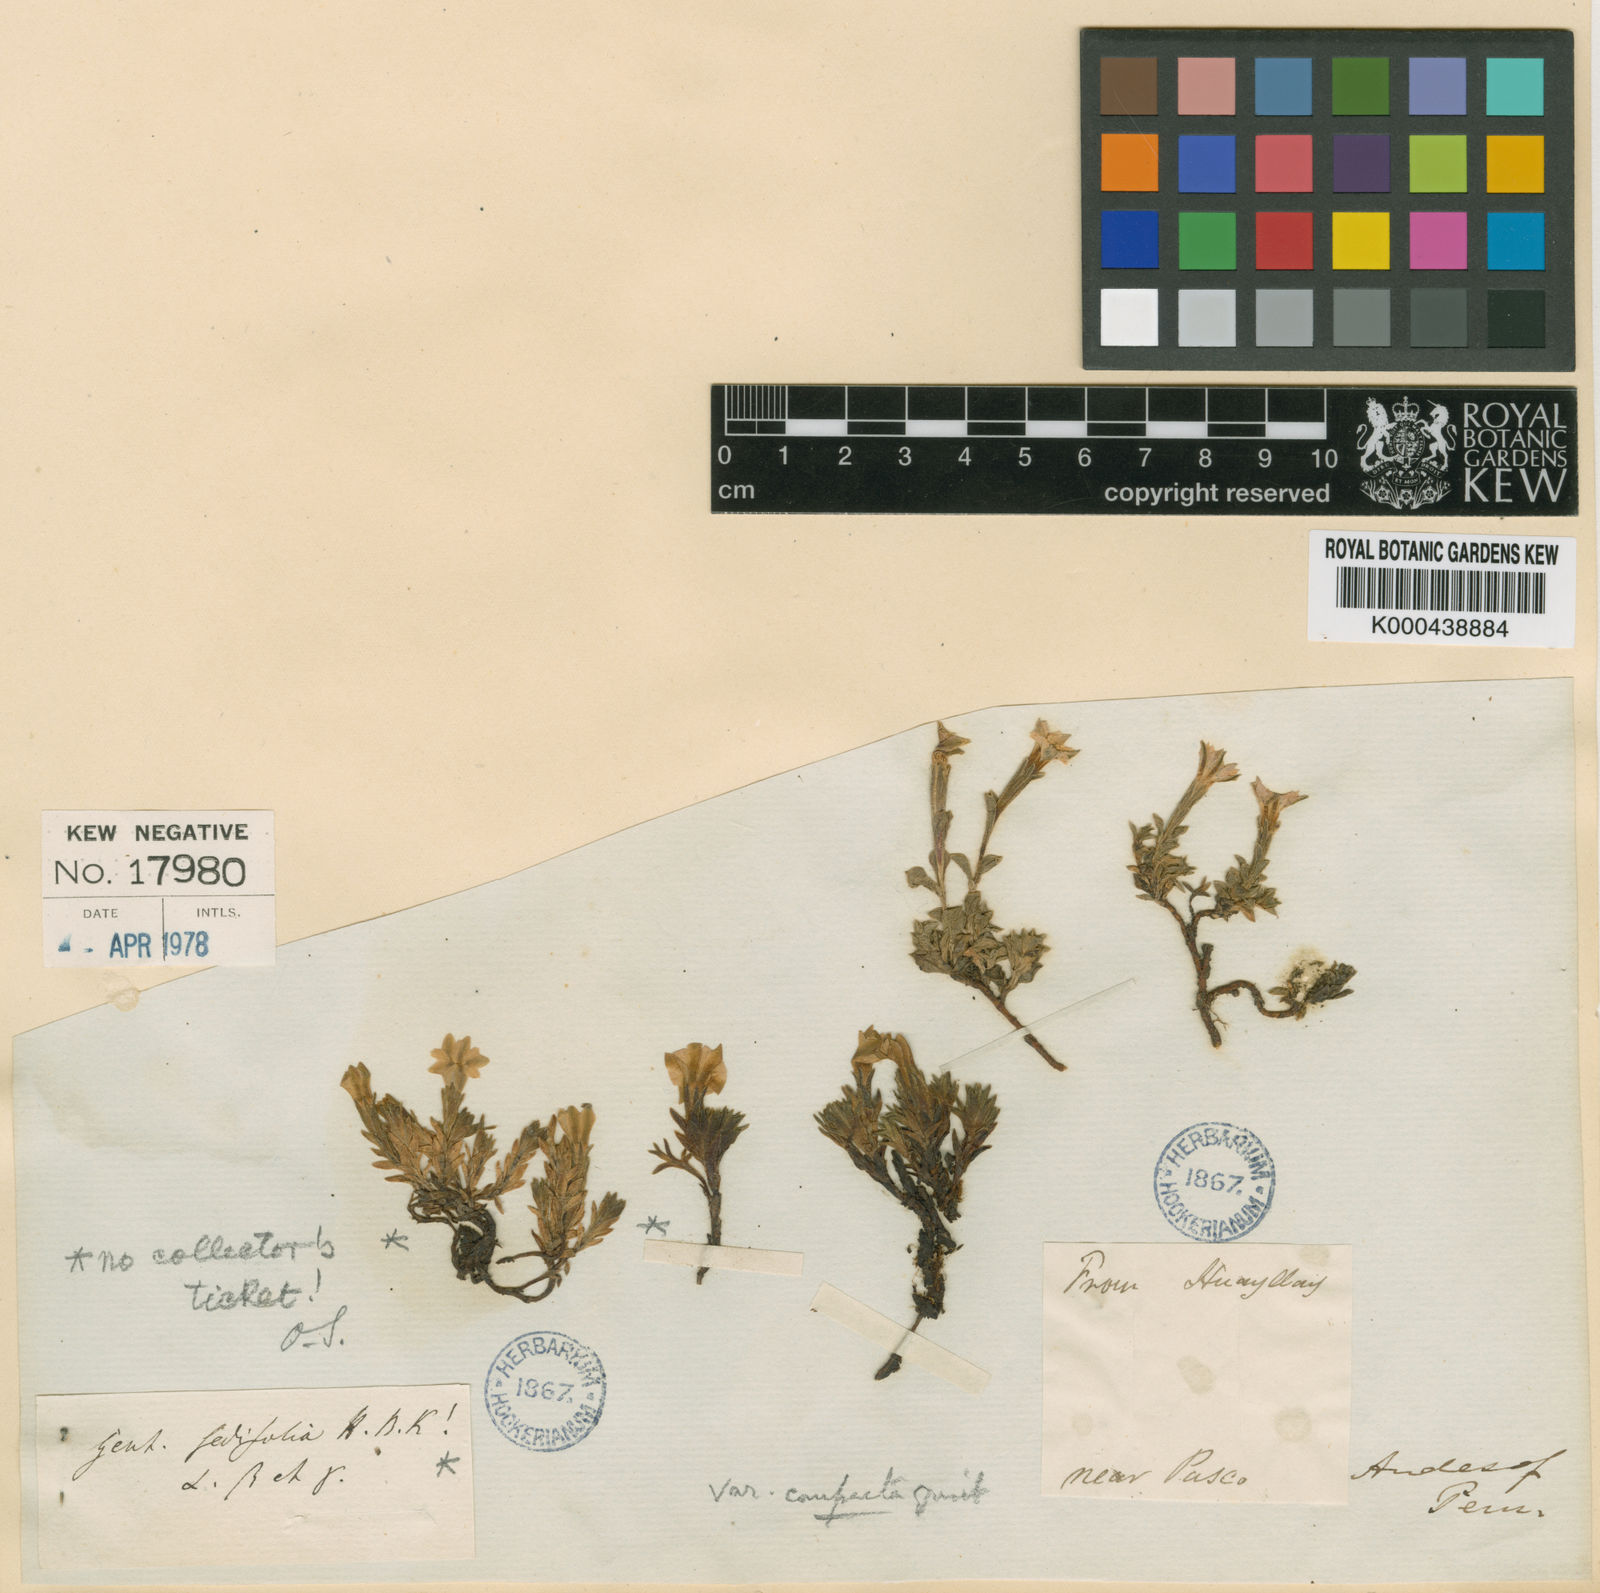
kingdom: Plantae
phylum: Tracheophyta
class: Magnoliopsida
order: Gentianales
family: Gentianaceae
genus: Gentiana
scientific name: Gentiana prostrata
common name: Moss gentian
